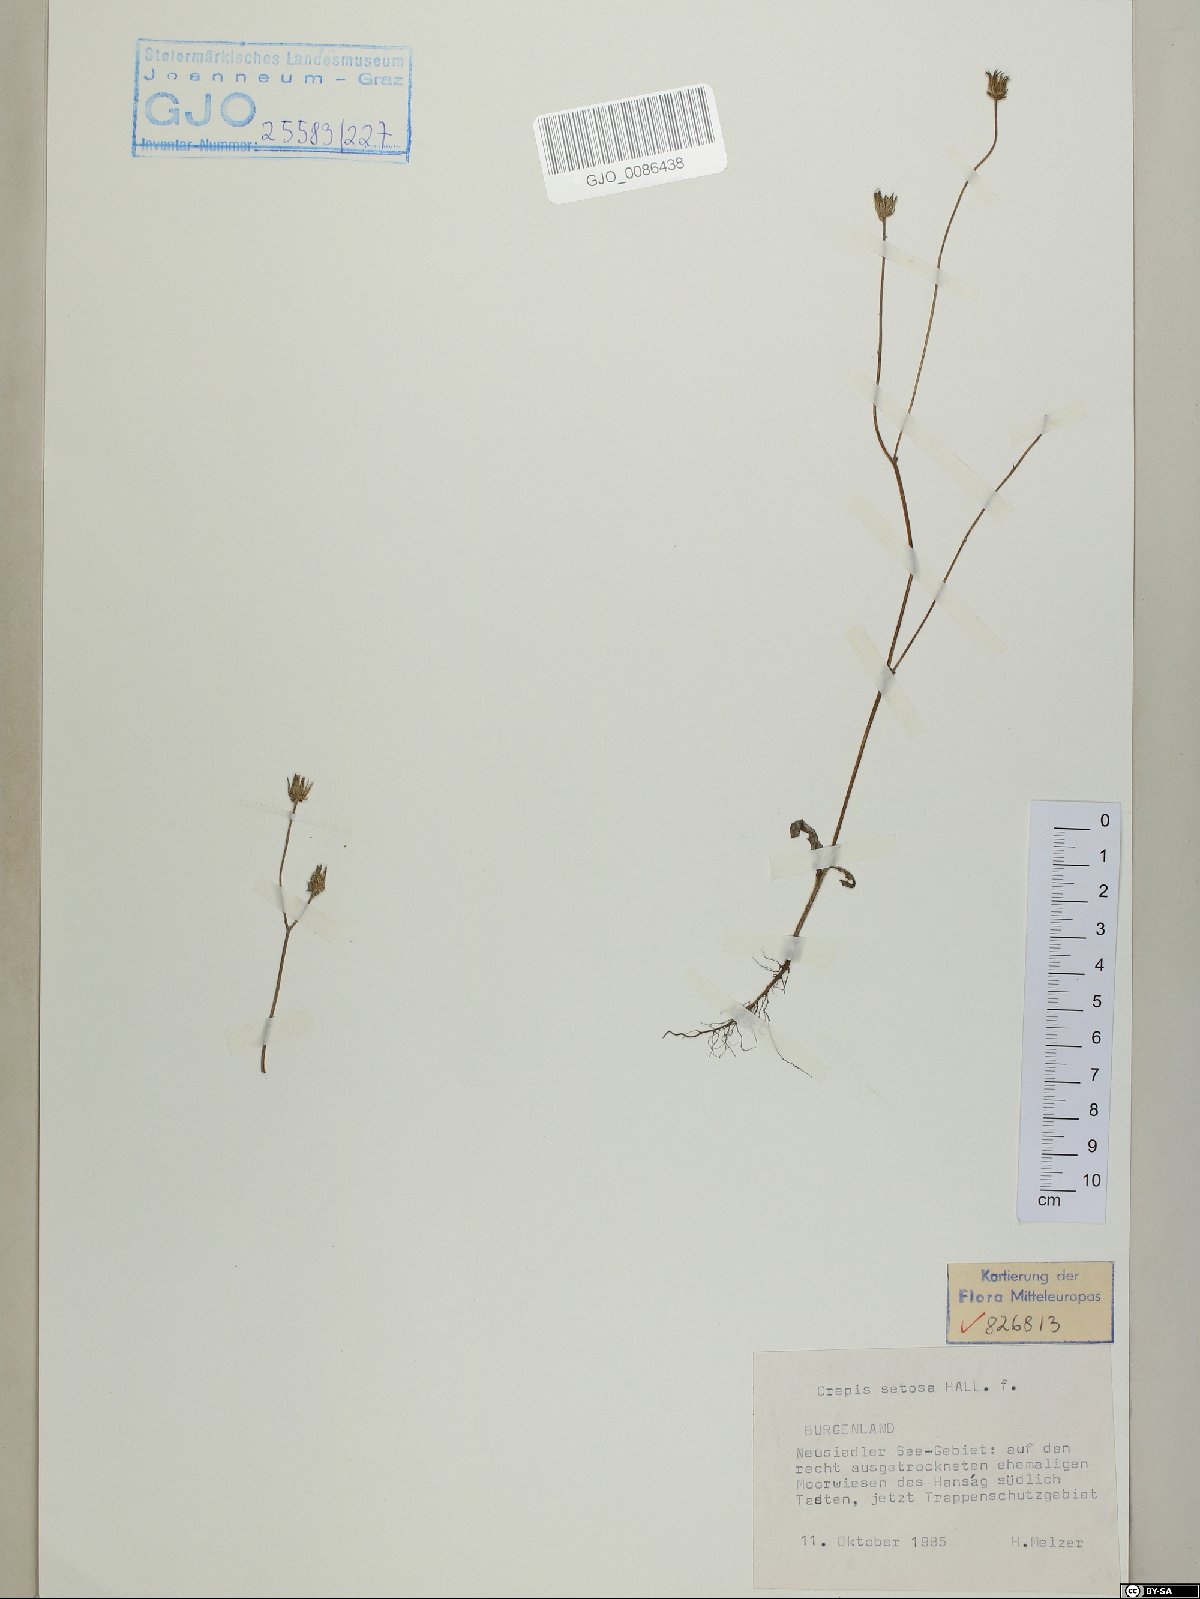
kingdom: Plantae
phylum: Tracheophyta
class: Magnoliopsida
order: Asterales
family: Asteraceae
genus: Crepis
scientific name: Crepis setosa
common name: Bristly hawk's-beard
